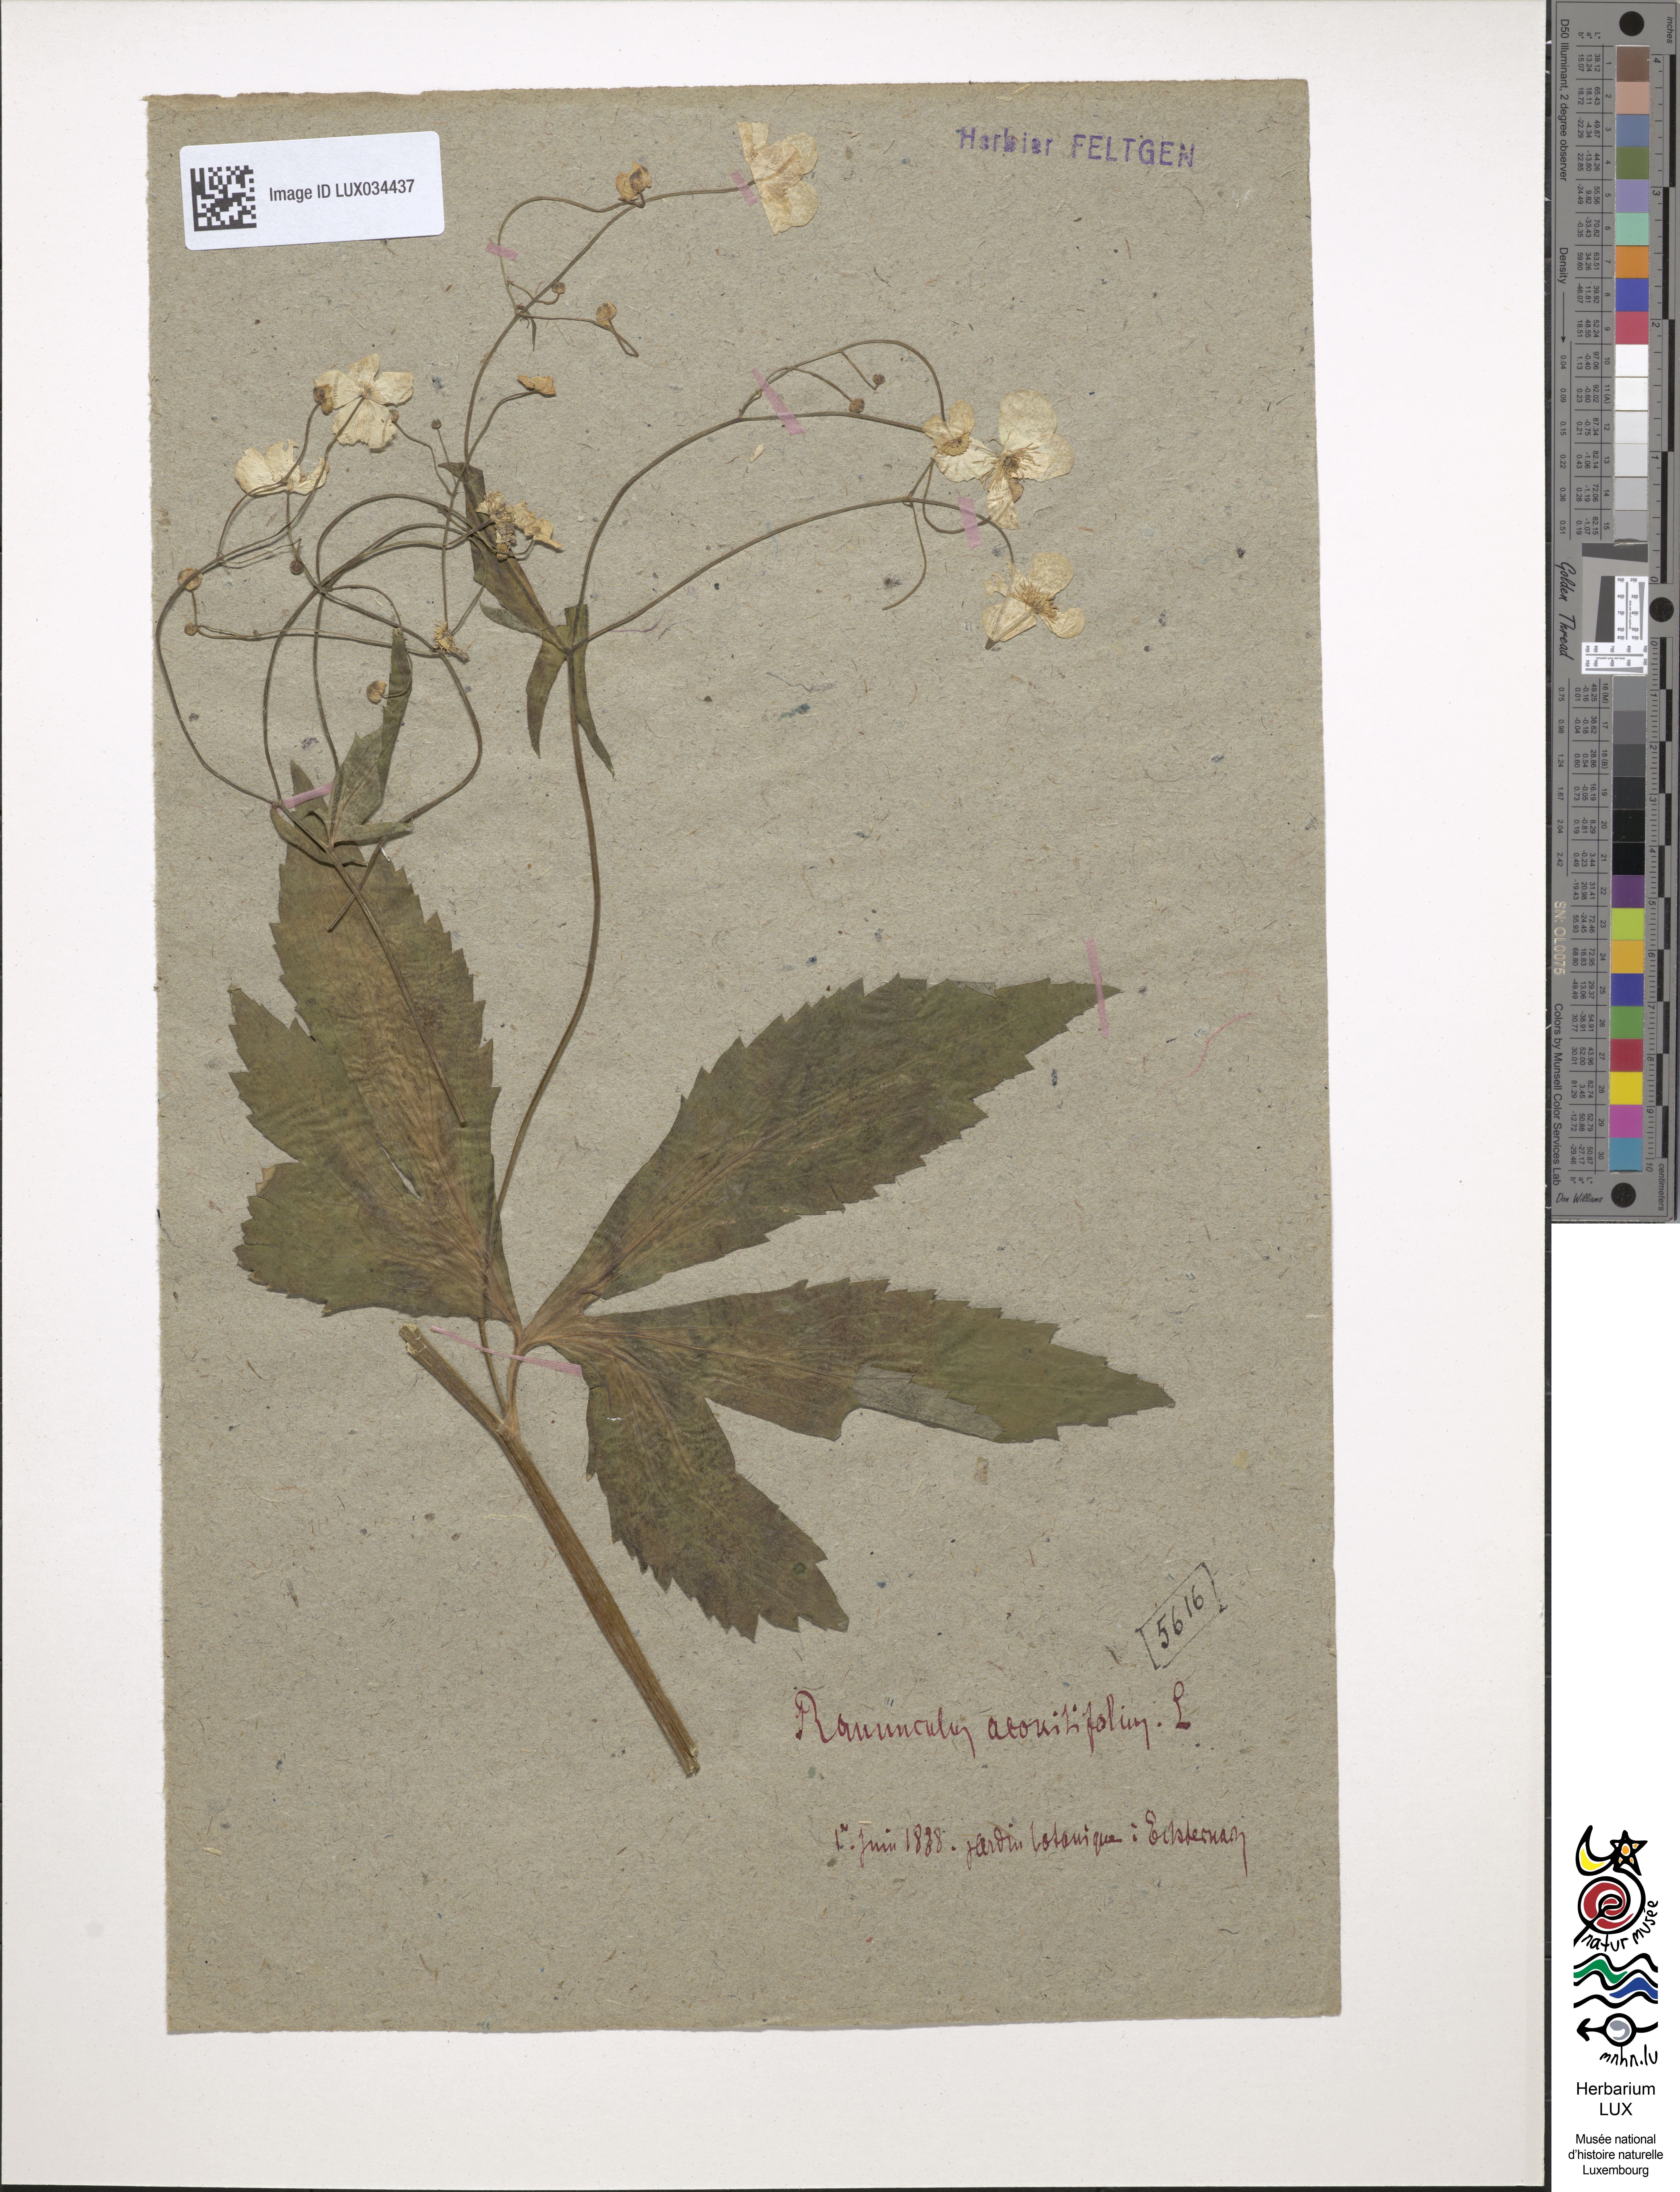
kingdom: Plantae
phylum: Tracheophyta
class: Magnoliopsida
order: Ranunculales
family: Ranunculaceae
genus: Ranunculus
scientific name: Ranunculus aconitifolius
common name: Aconite-leaved buttercup
